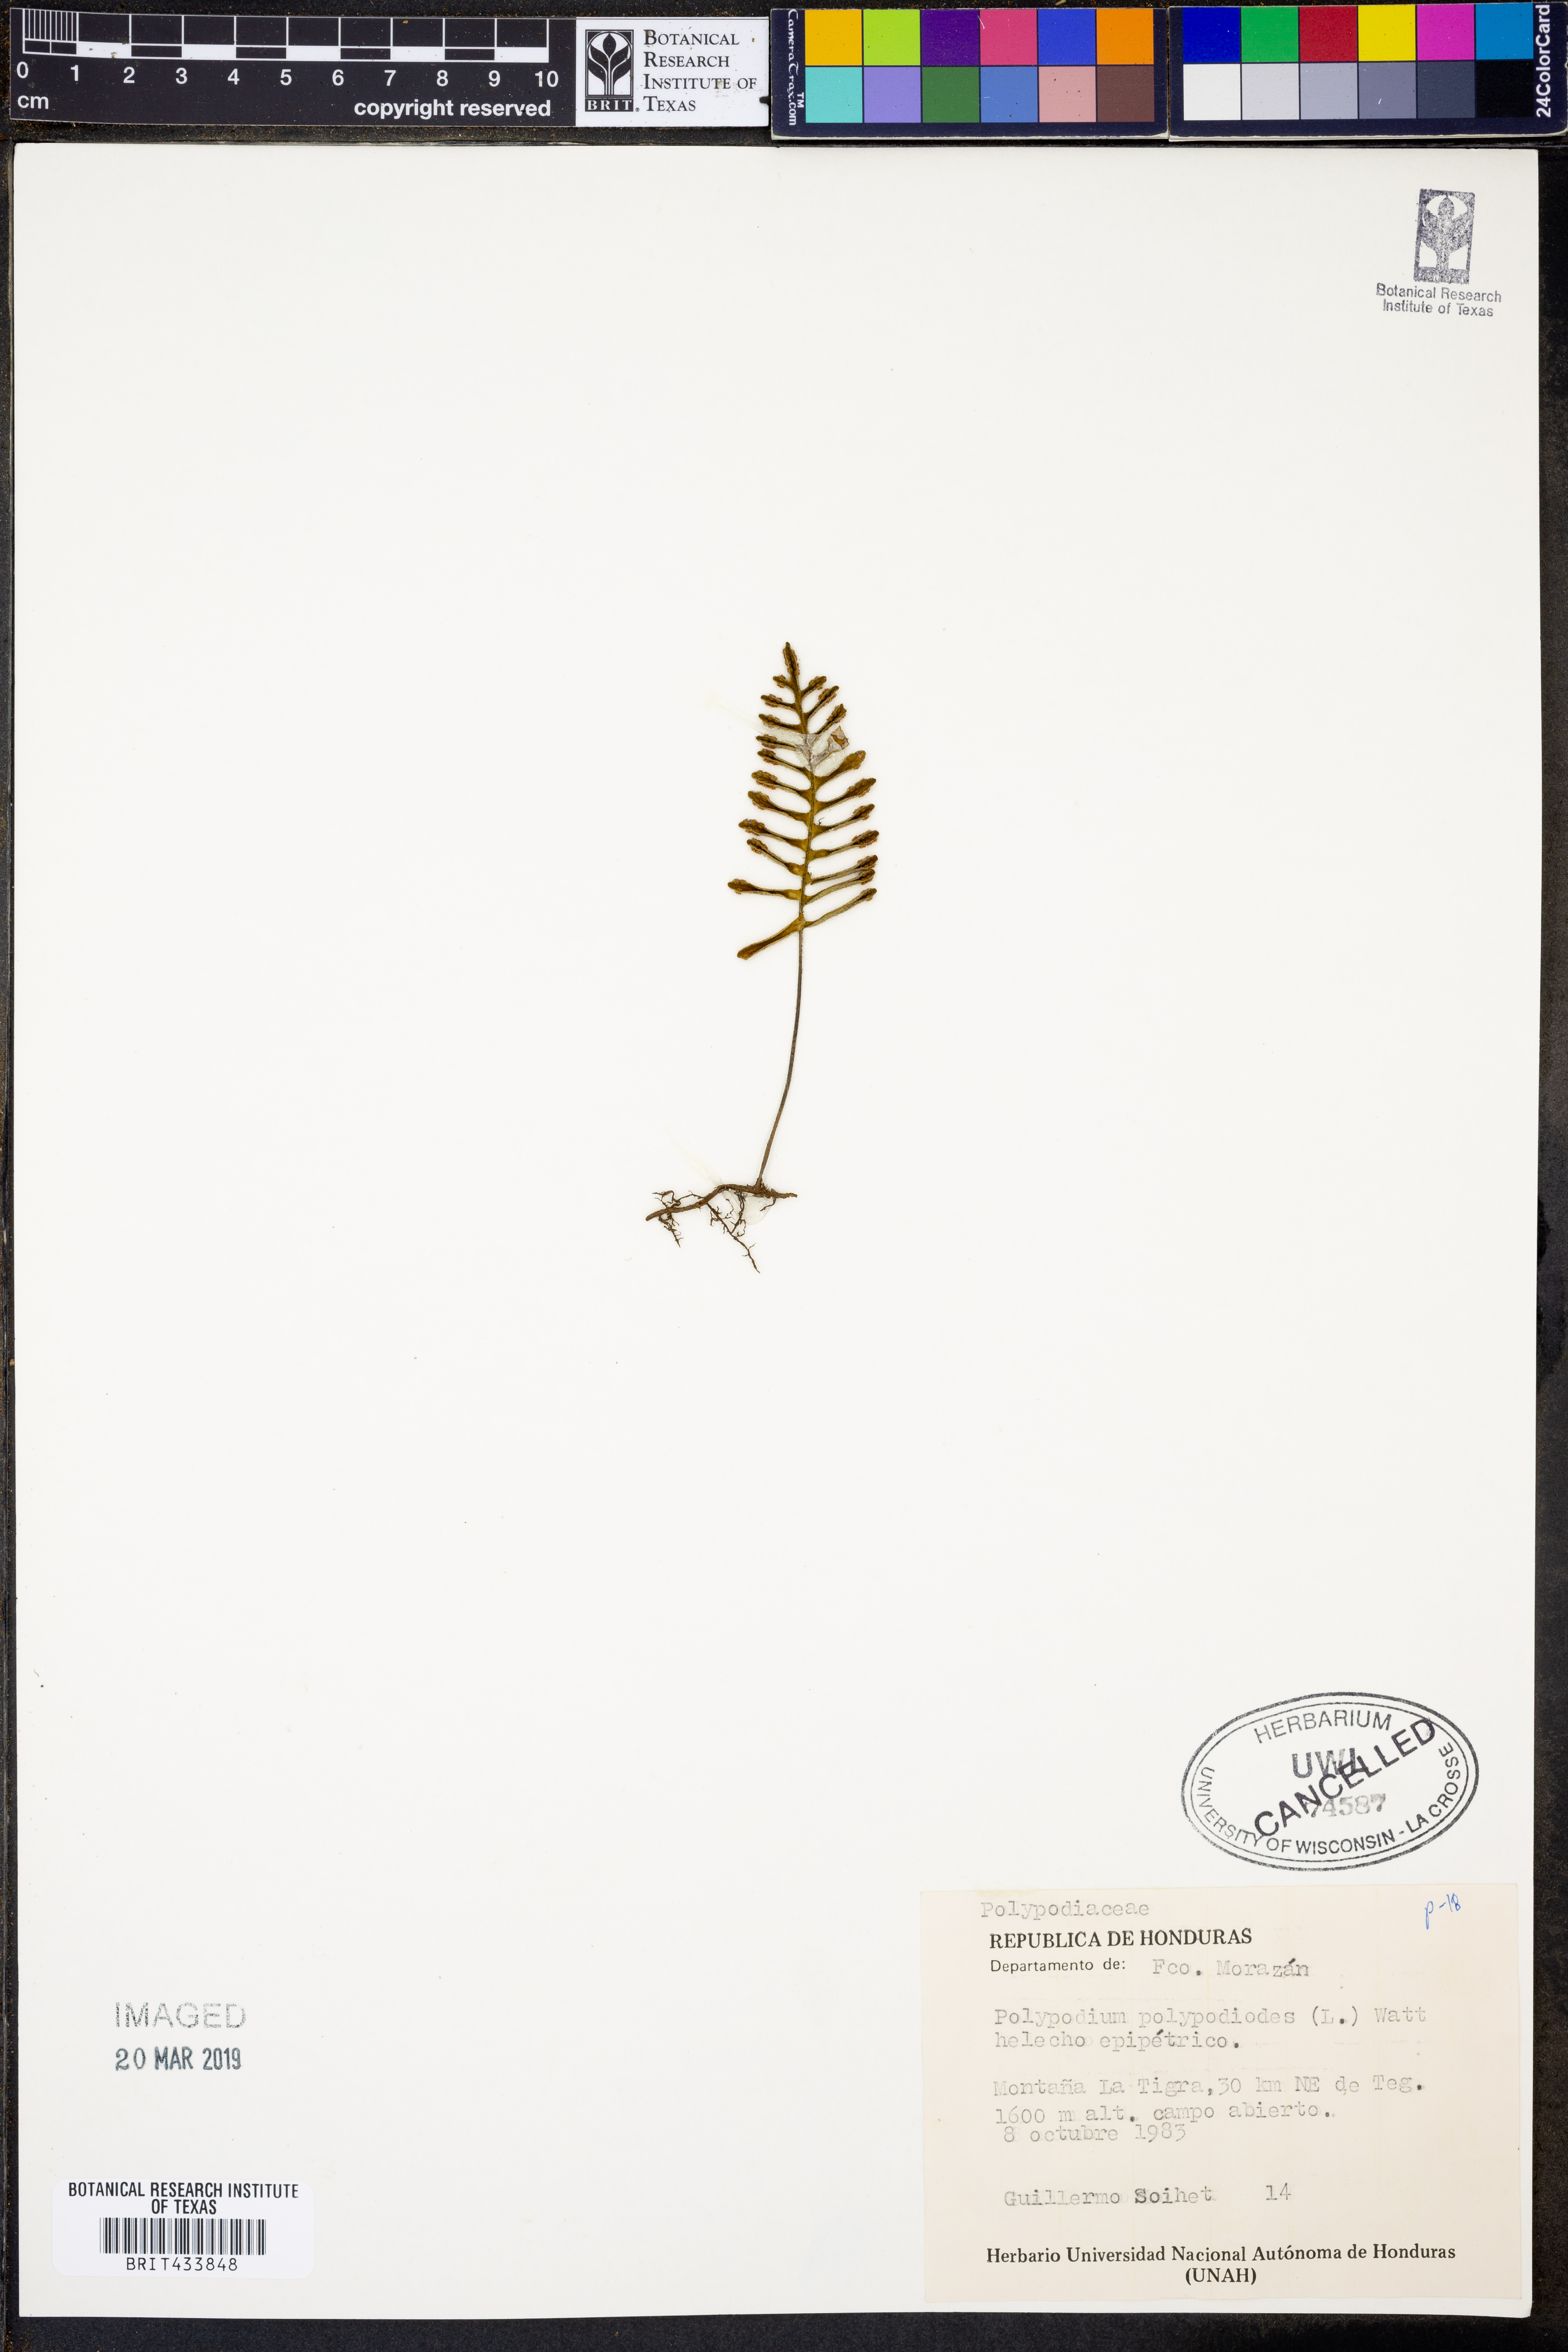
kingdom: Plantae
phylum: Tracheophyta
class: Polypodiopsida
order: Polypodiales
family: Polypodiaceae
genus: Pleopeltis
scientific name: Pleopeltis polypodioides
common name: Resurrection fern
